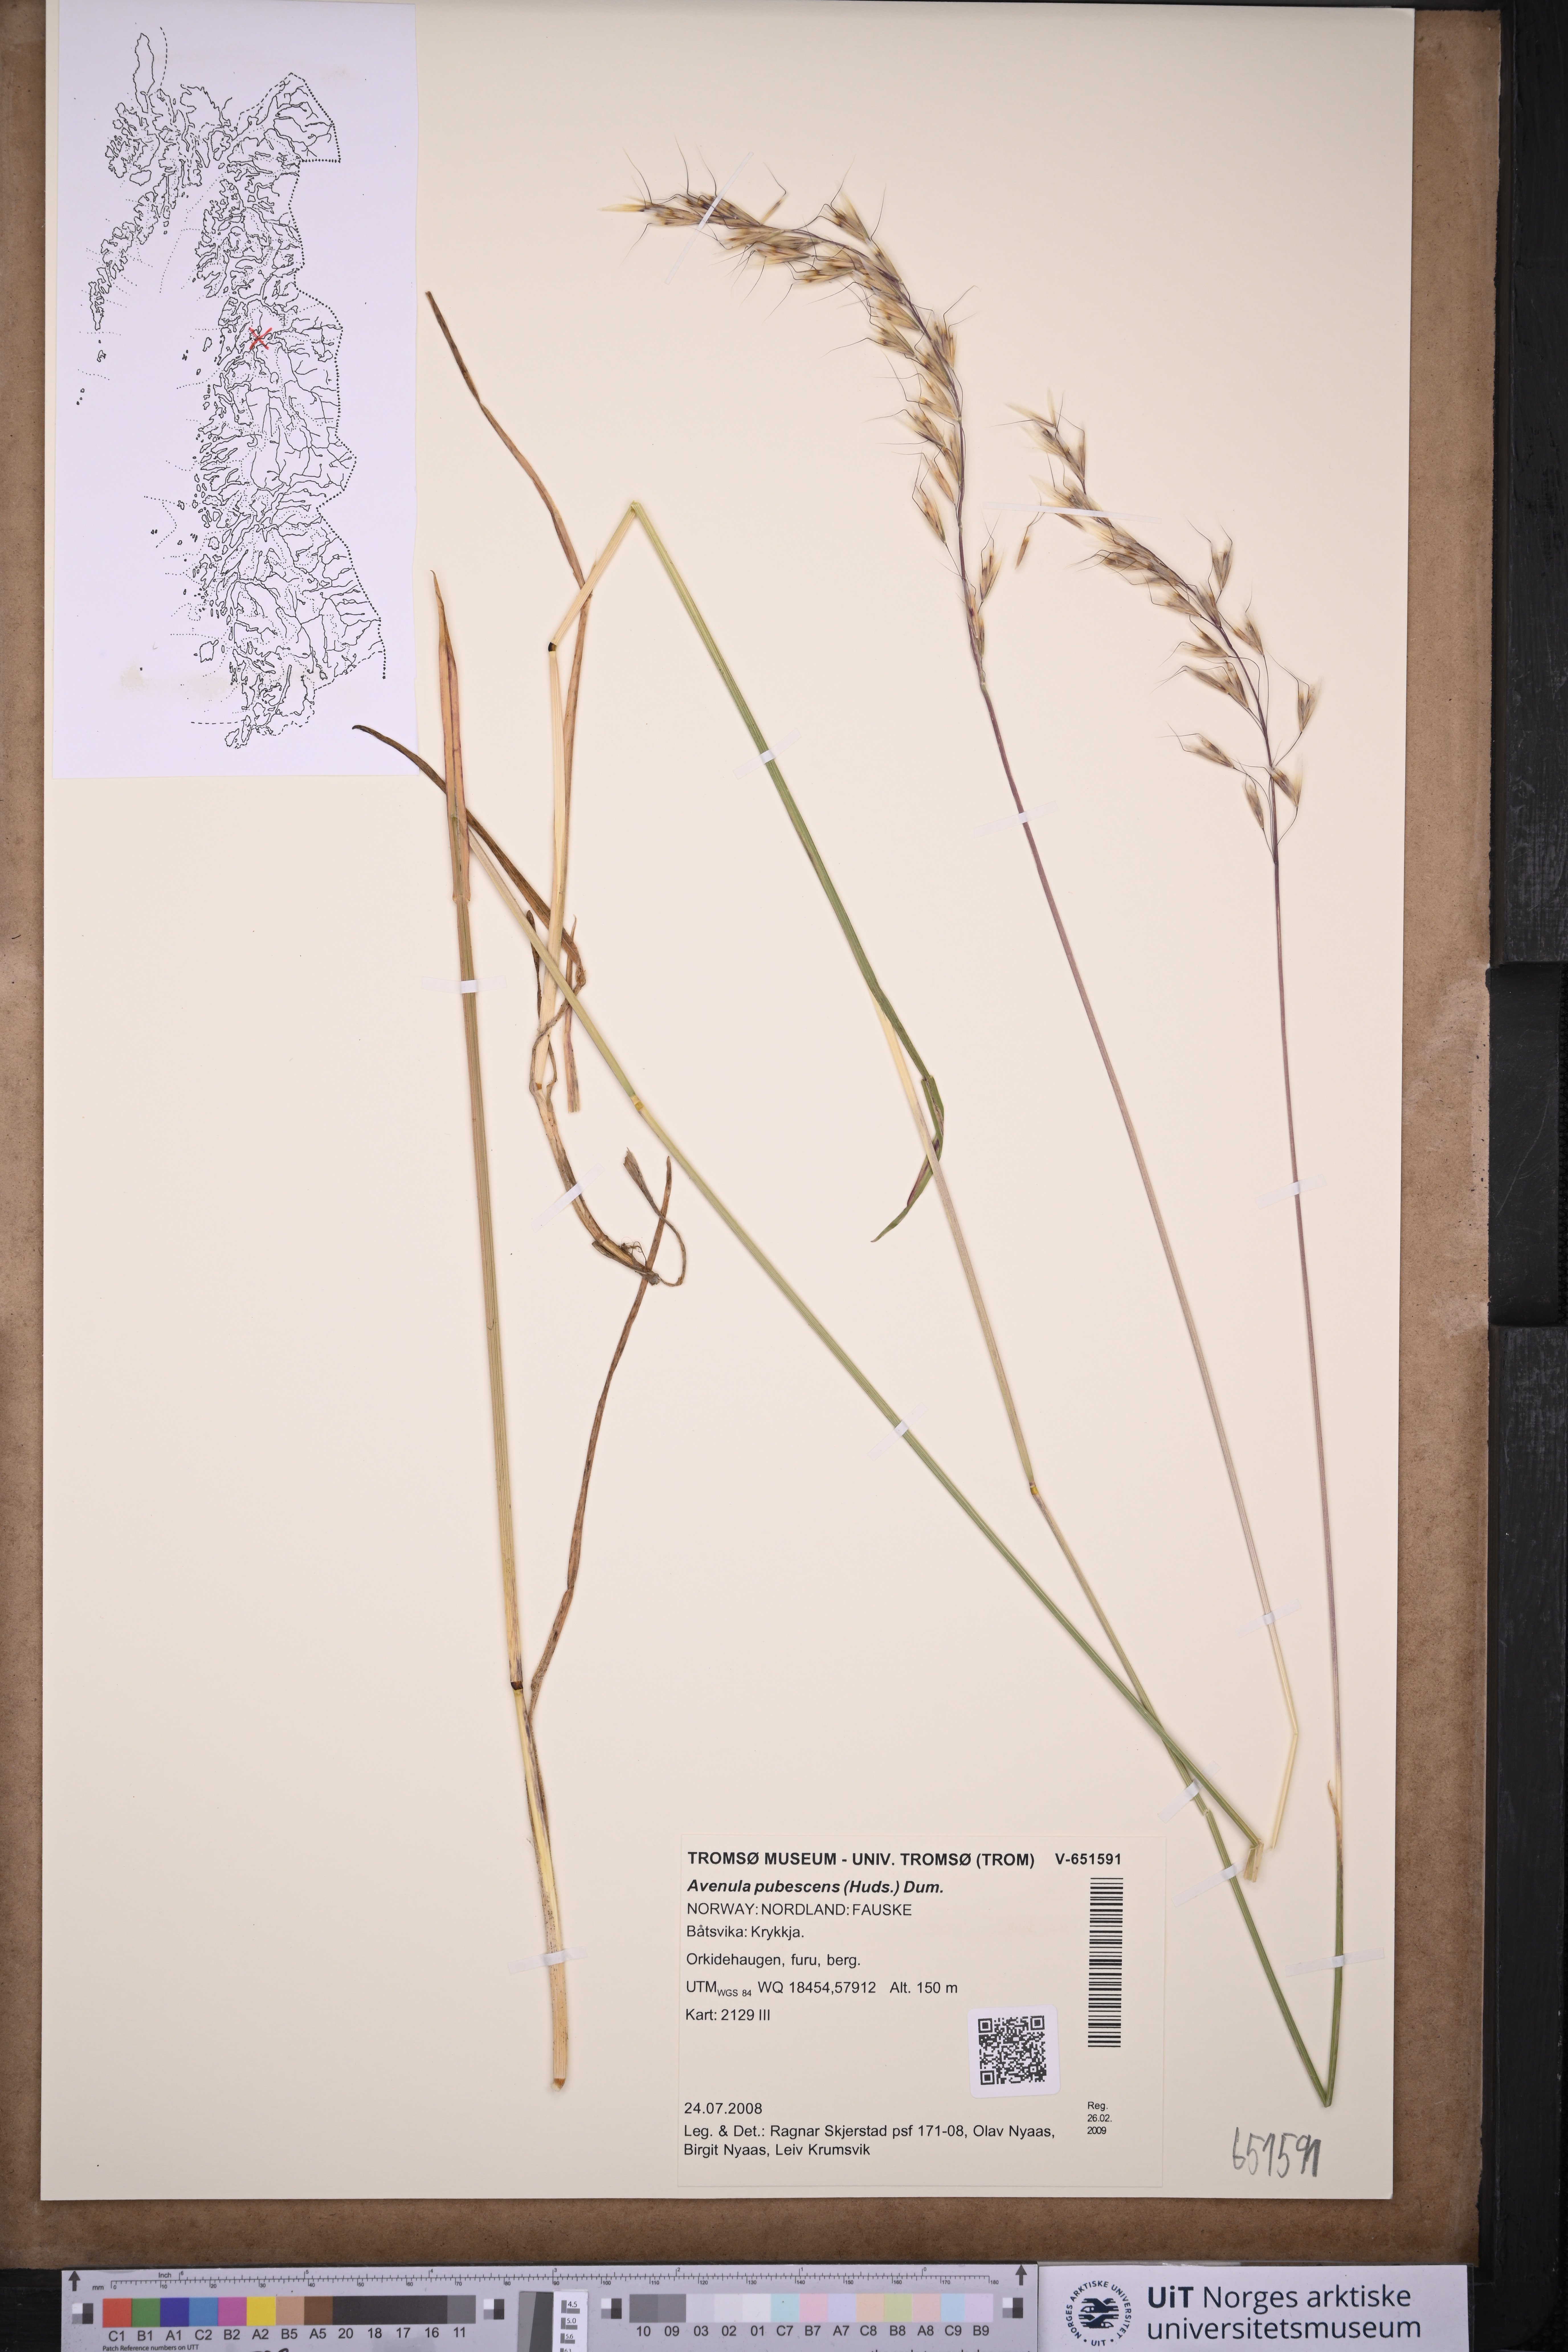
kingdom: Plantae
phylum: Tracheophyta
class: Liliopsida
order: Poales
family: Poaceae
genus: Avenula
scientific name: Avenula pubescens
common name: Downy alpine oatgrass
